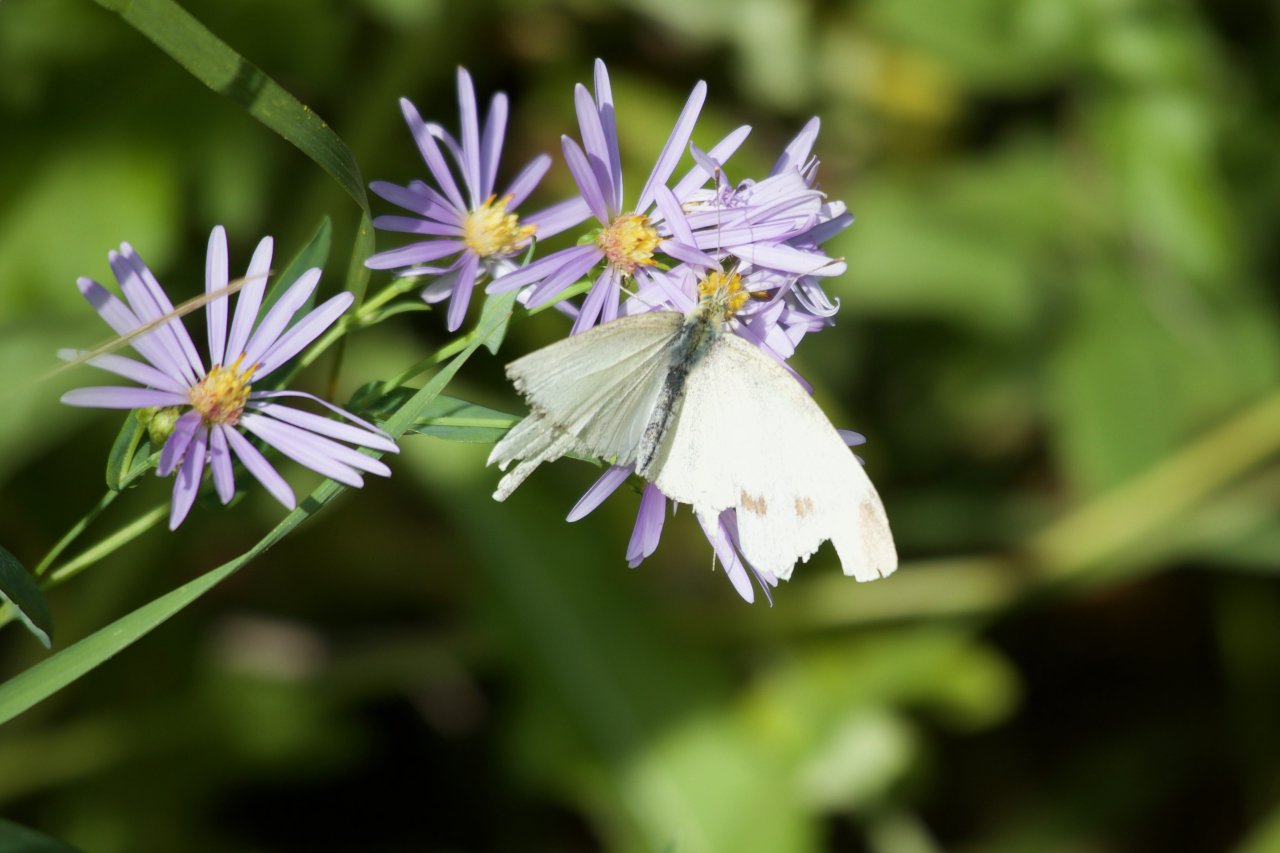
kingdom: Animalia
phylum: Arthropoda
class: Insecta
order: Lepidoptera
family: Pieridae
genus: Pieris
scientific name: Pieris rapae
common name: Cabbage White
